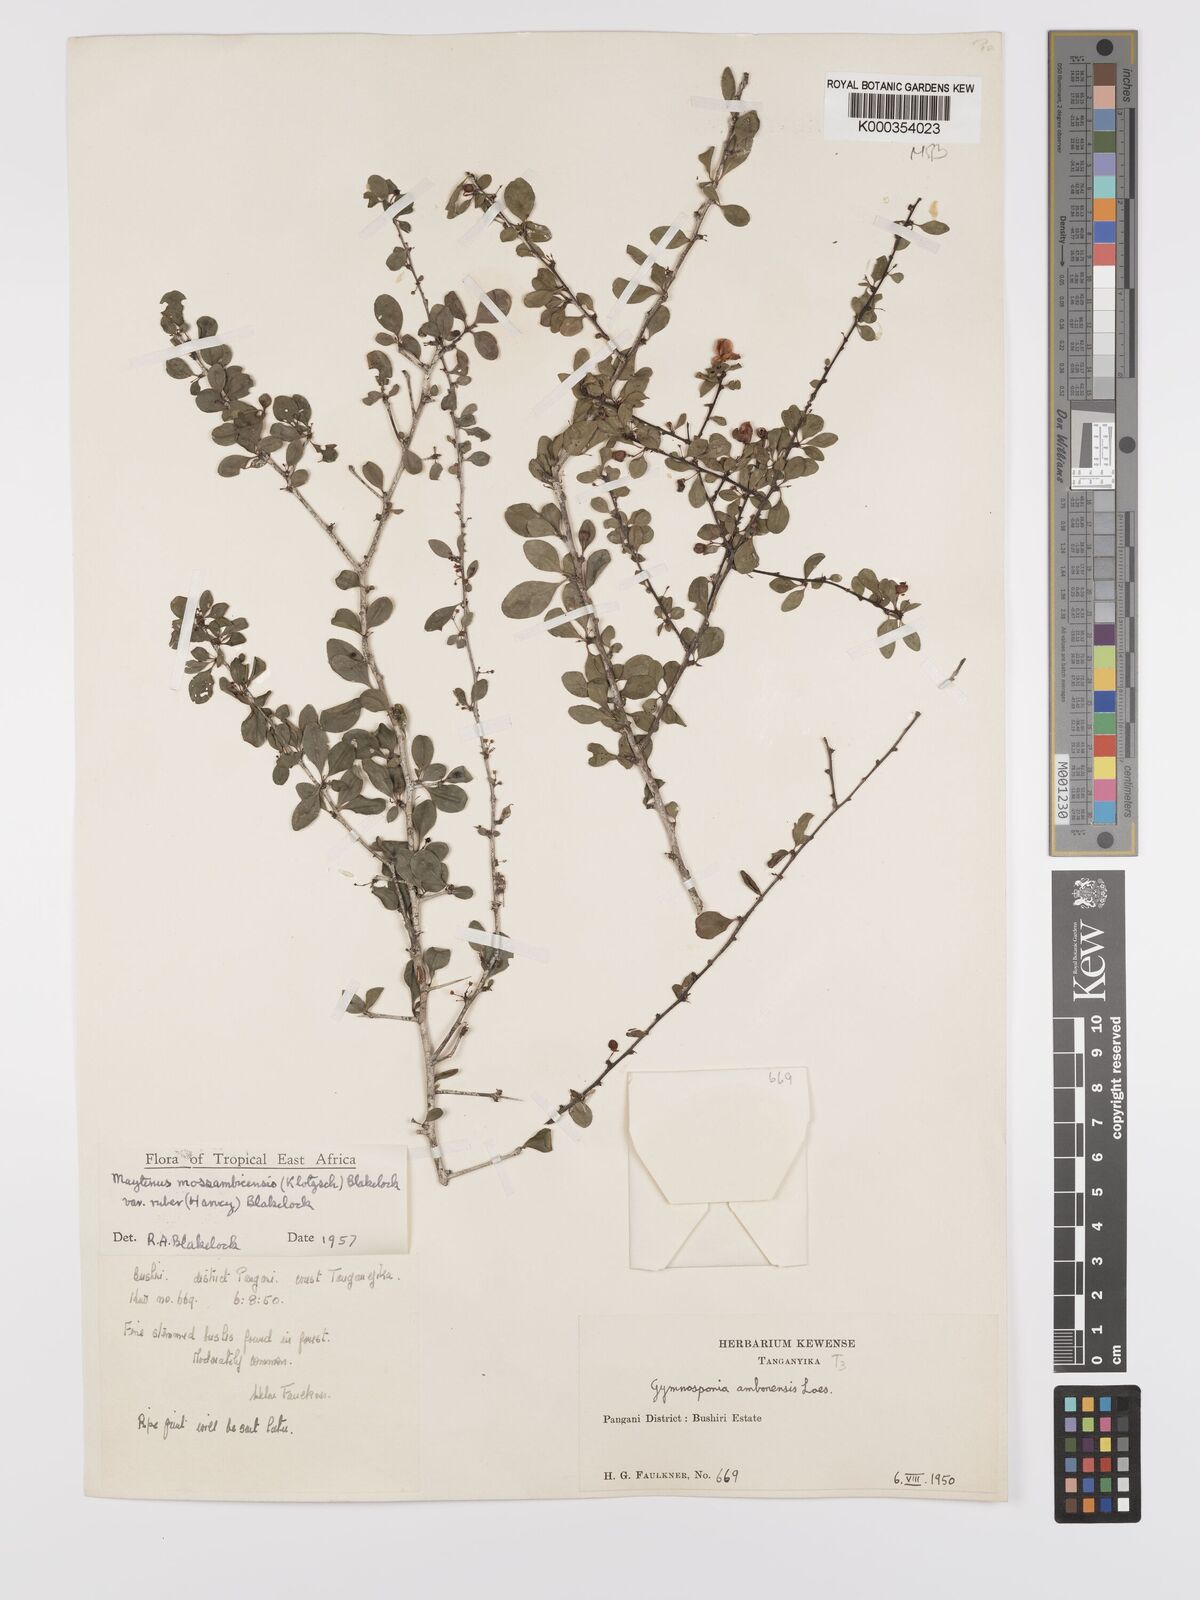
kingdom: Plantae
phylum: Tracheophyta
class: Magnoliopsida
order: Celastrales
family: Celastraceae
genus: Gymnosporia
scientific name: Gymnosporia mossambicensis
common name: Black forest spike-thorn
